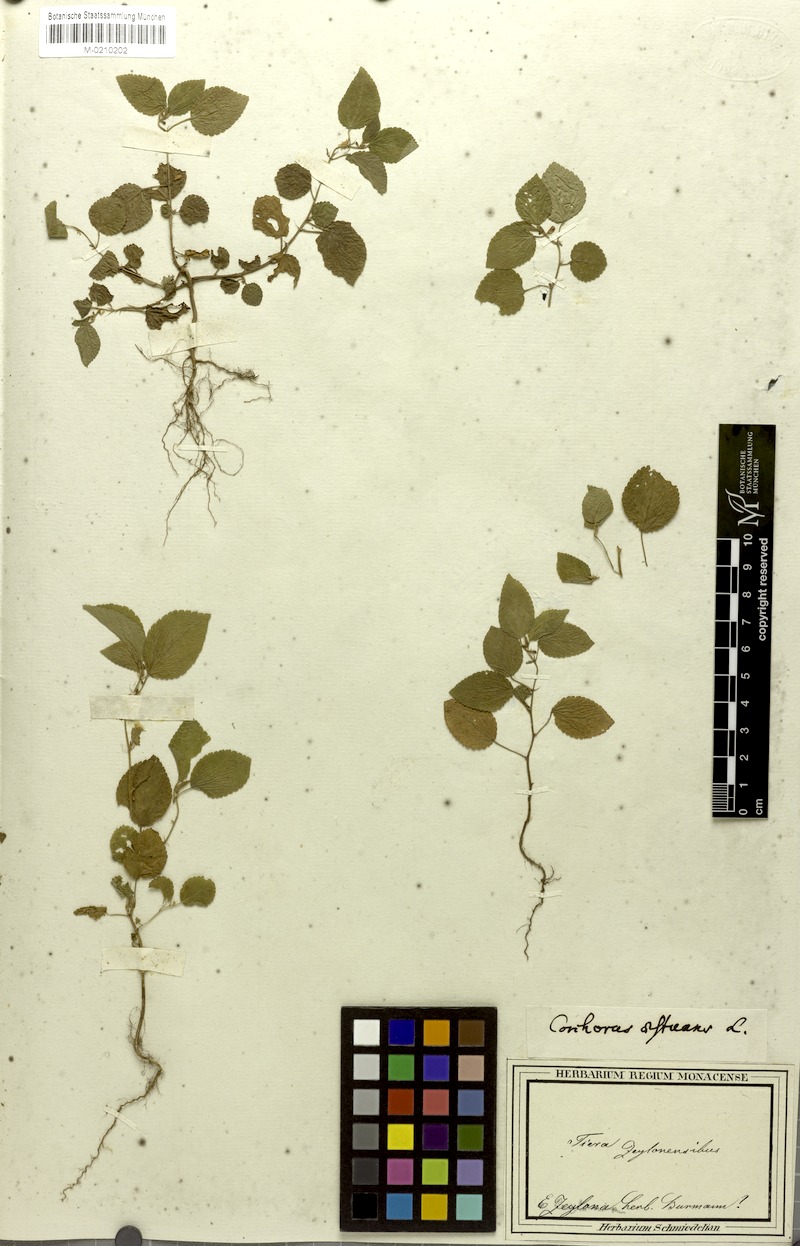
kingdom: Plantae
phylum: Tracheophyta
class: Magnoliopsida
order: Malvales
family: Malvaceae
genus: Corchorus
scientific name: Corchorus aestuans
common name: Jute
